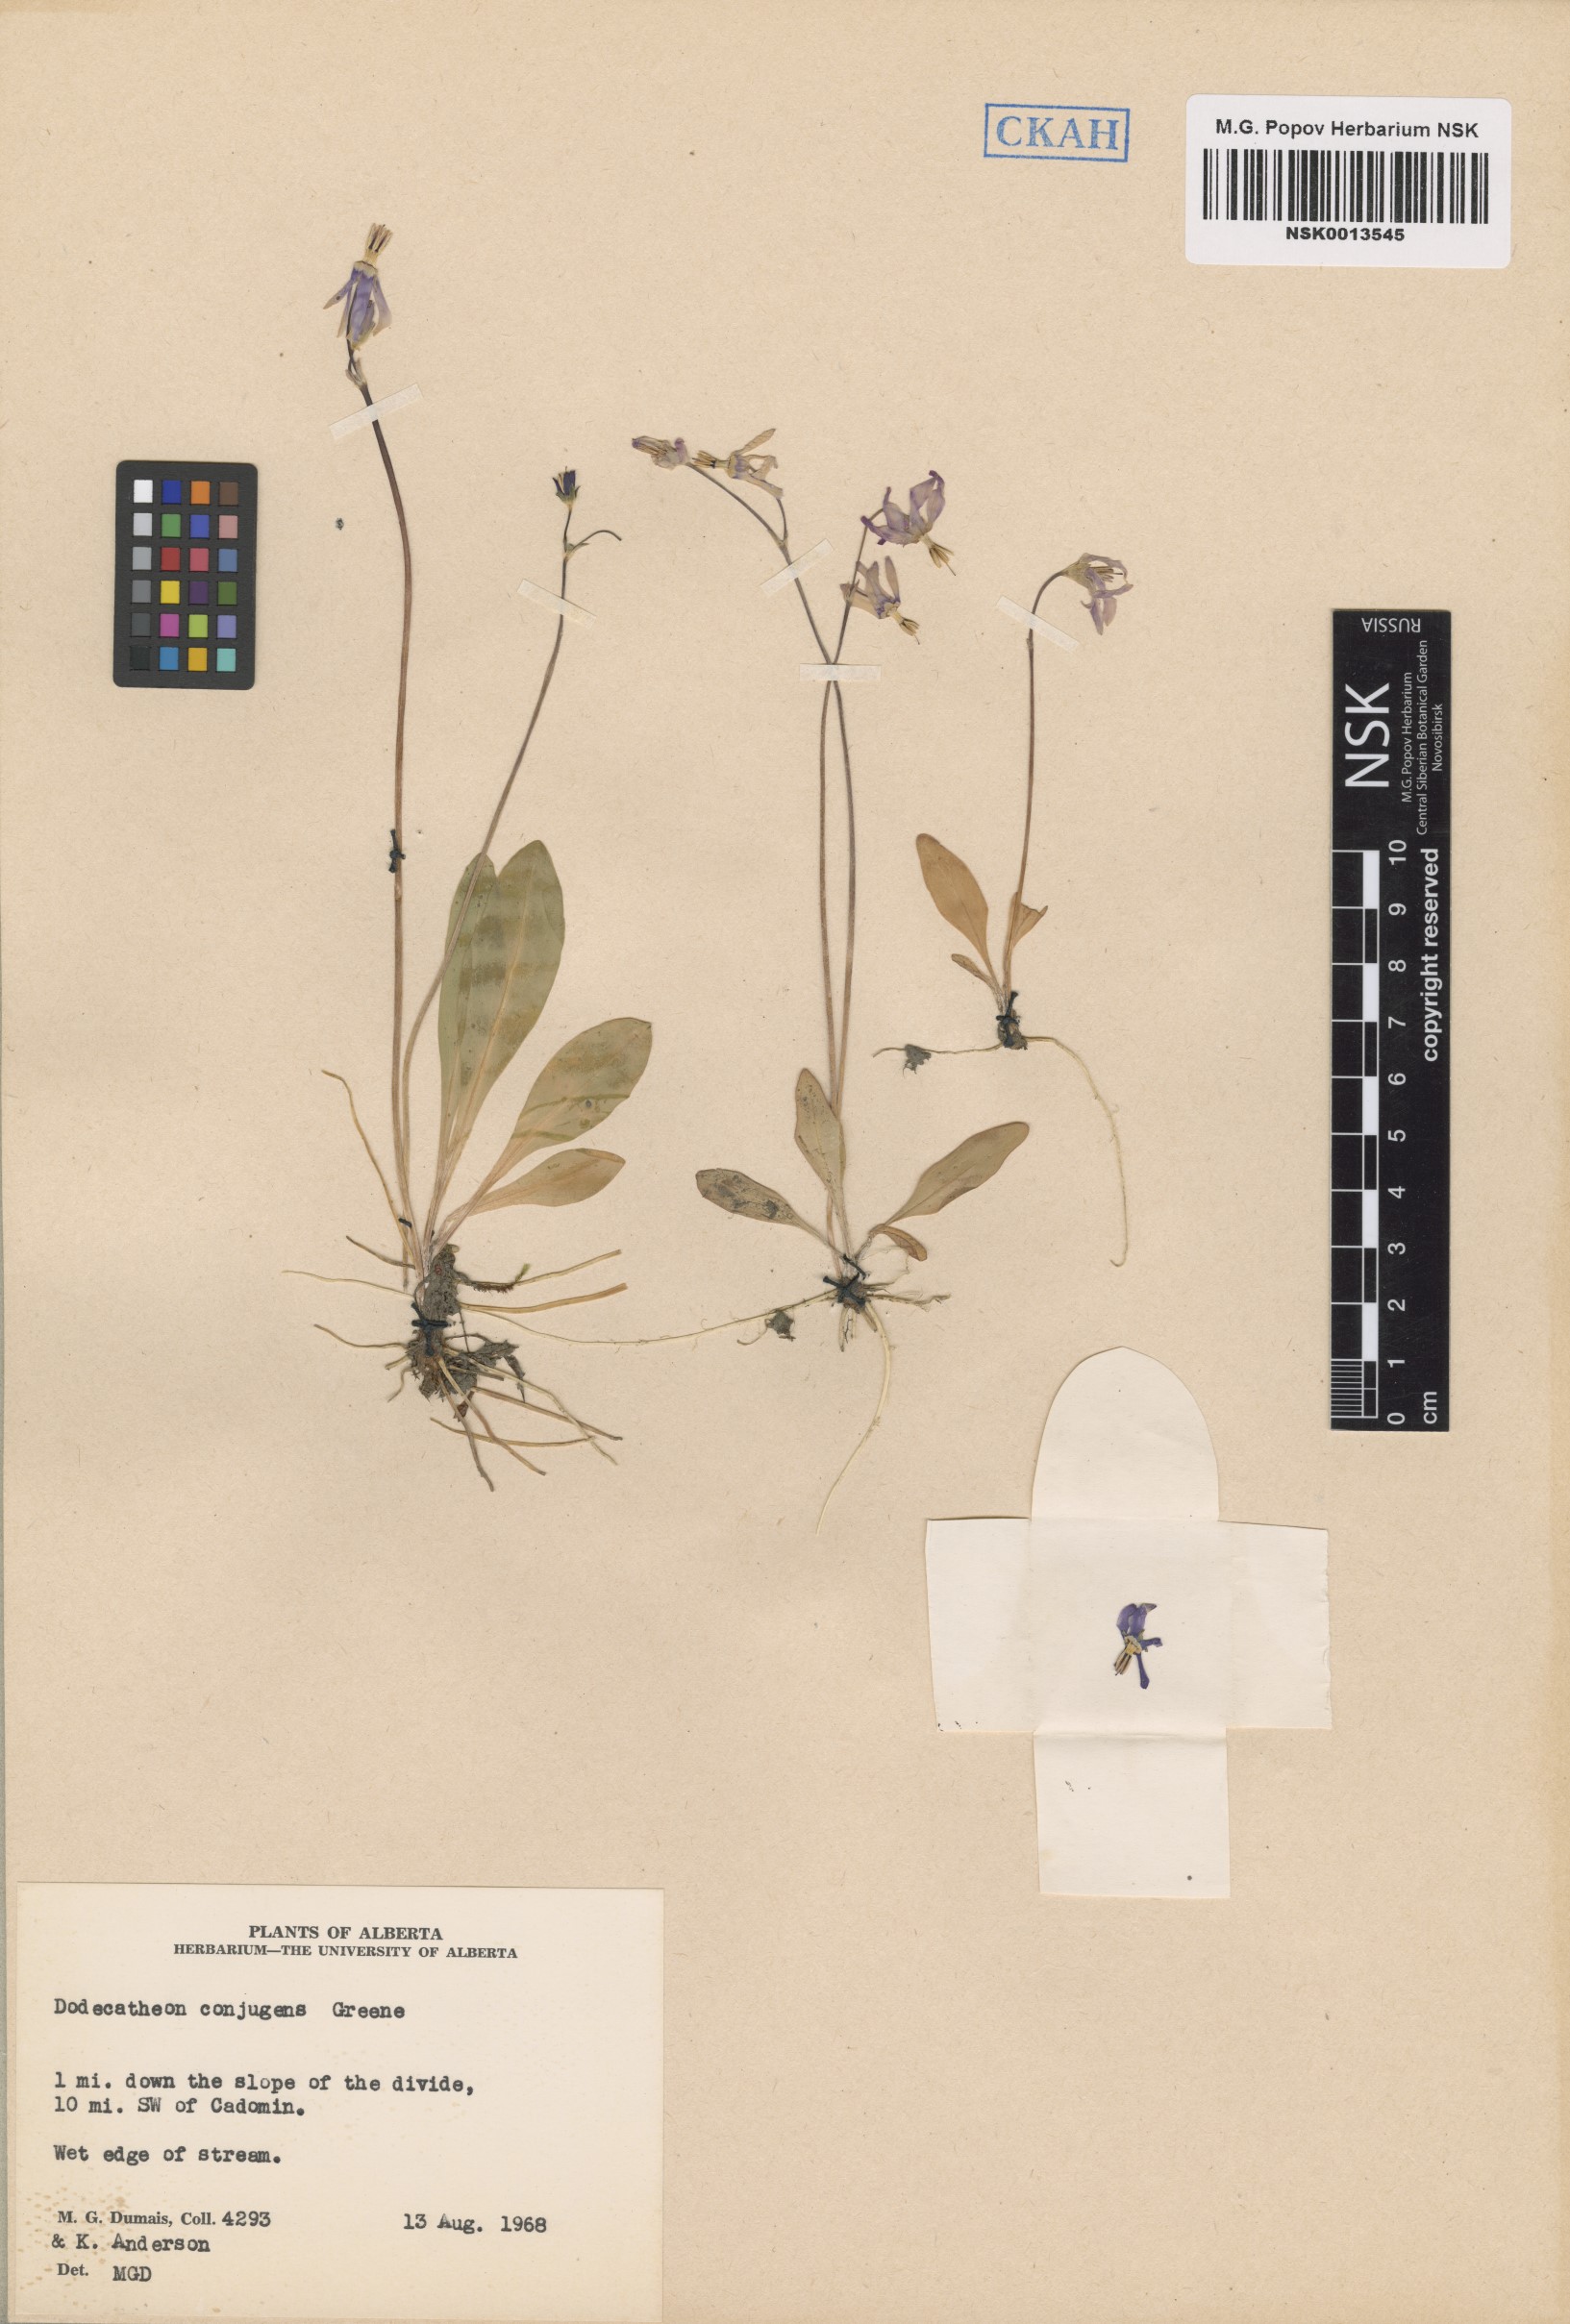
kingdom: Plantae
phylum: Tracheophyta
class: Magnoliopsida
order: Ericales
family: Primulaceae
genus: Dodecatheon
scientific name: Dodecatheon conjugens
